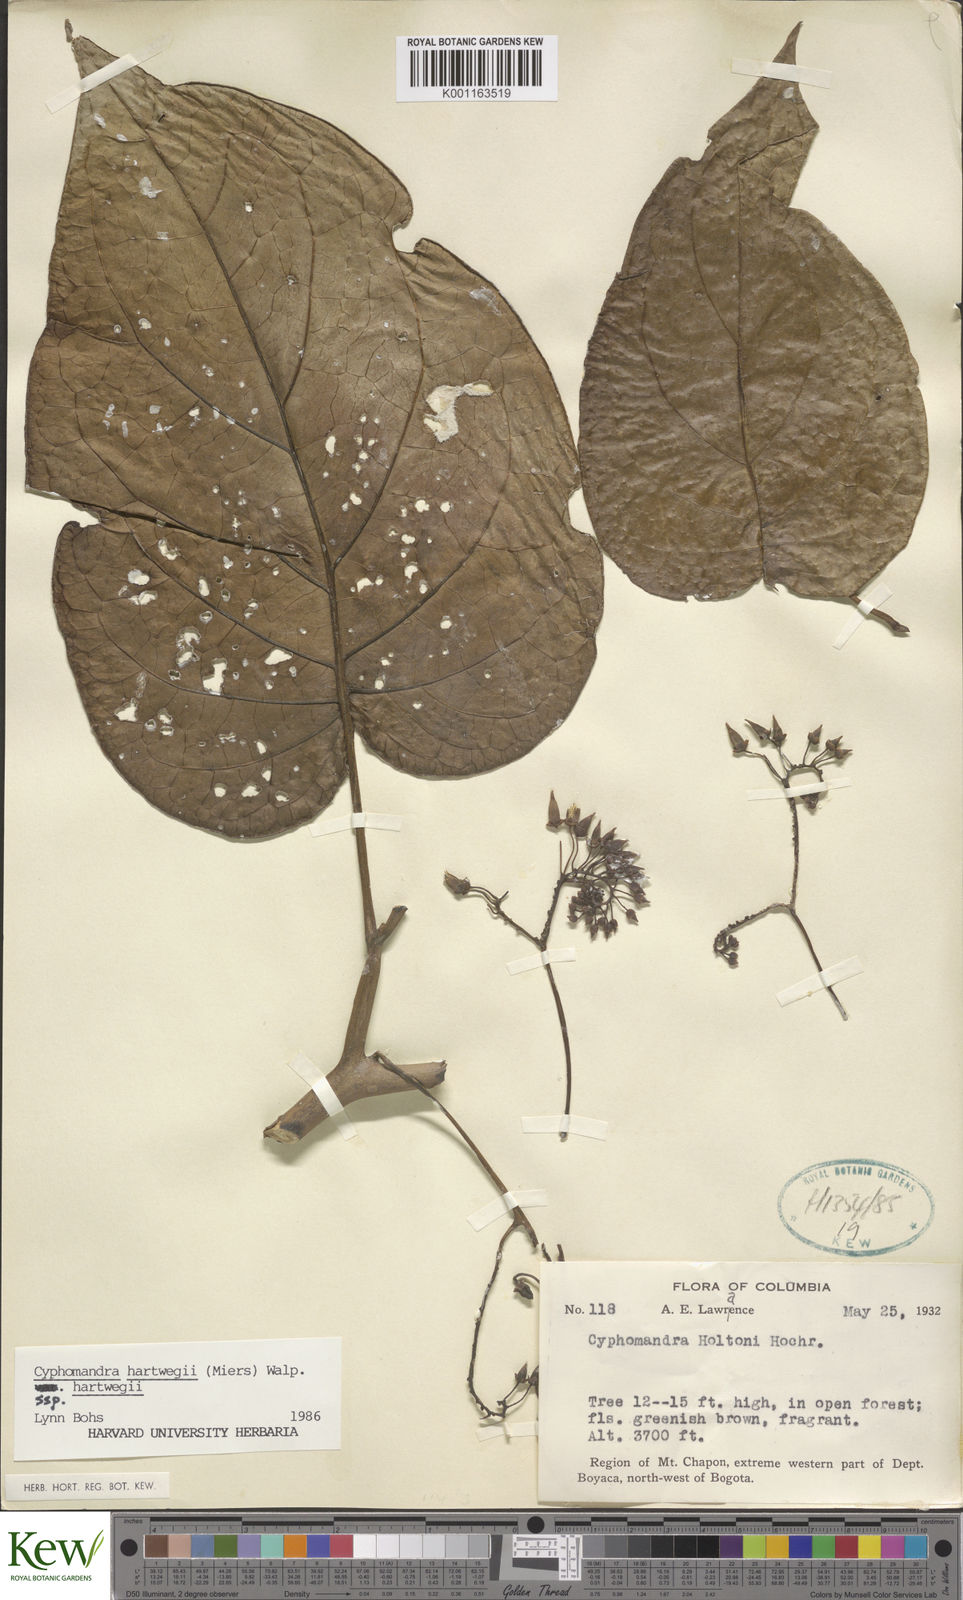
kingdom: Plantae
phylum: Tracheophyta
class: Magnoliopsida
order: Solanales
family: Solanaceae
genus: Solanum
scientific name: Solanum splendens
